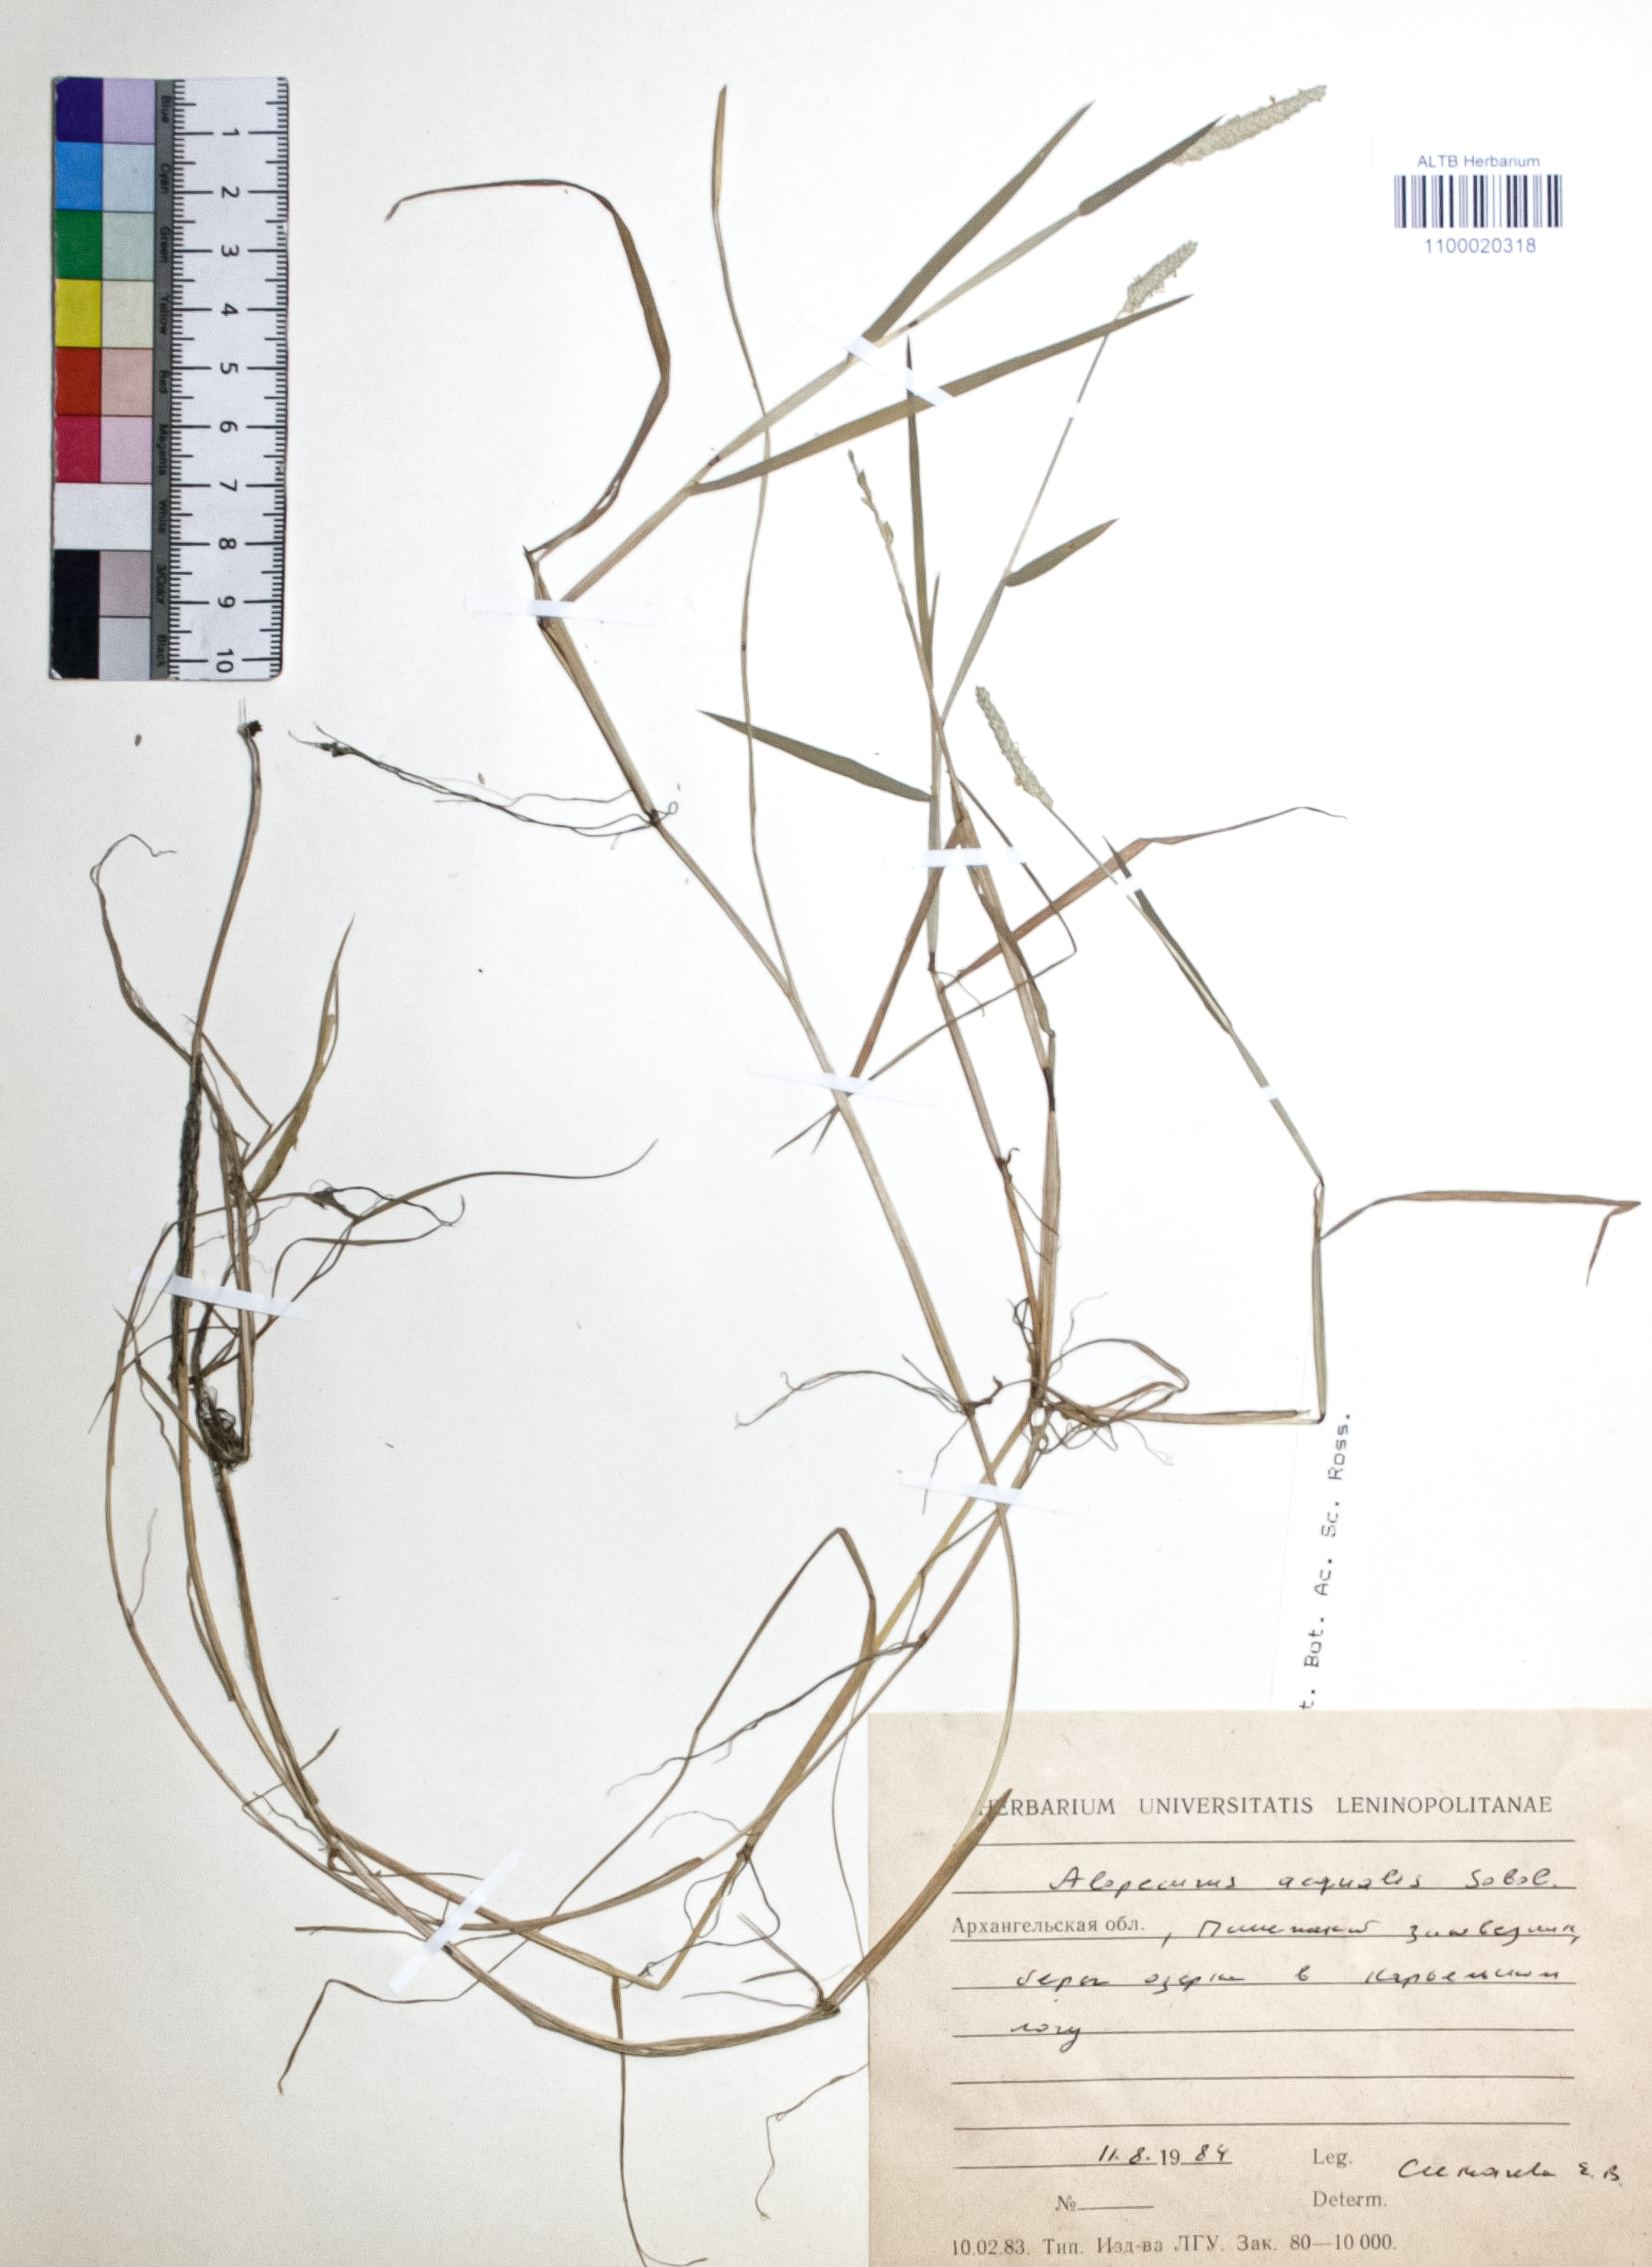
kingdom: Plantae
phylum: Tracheophyta
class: Liliopsida
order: Poales
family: Poaceae
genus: Alopecurus
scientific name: Alopecurus aequalis
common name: Orange foxtail
